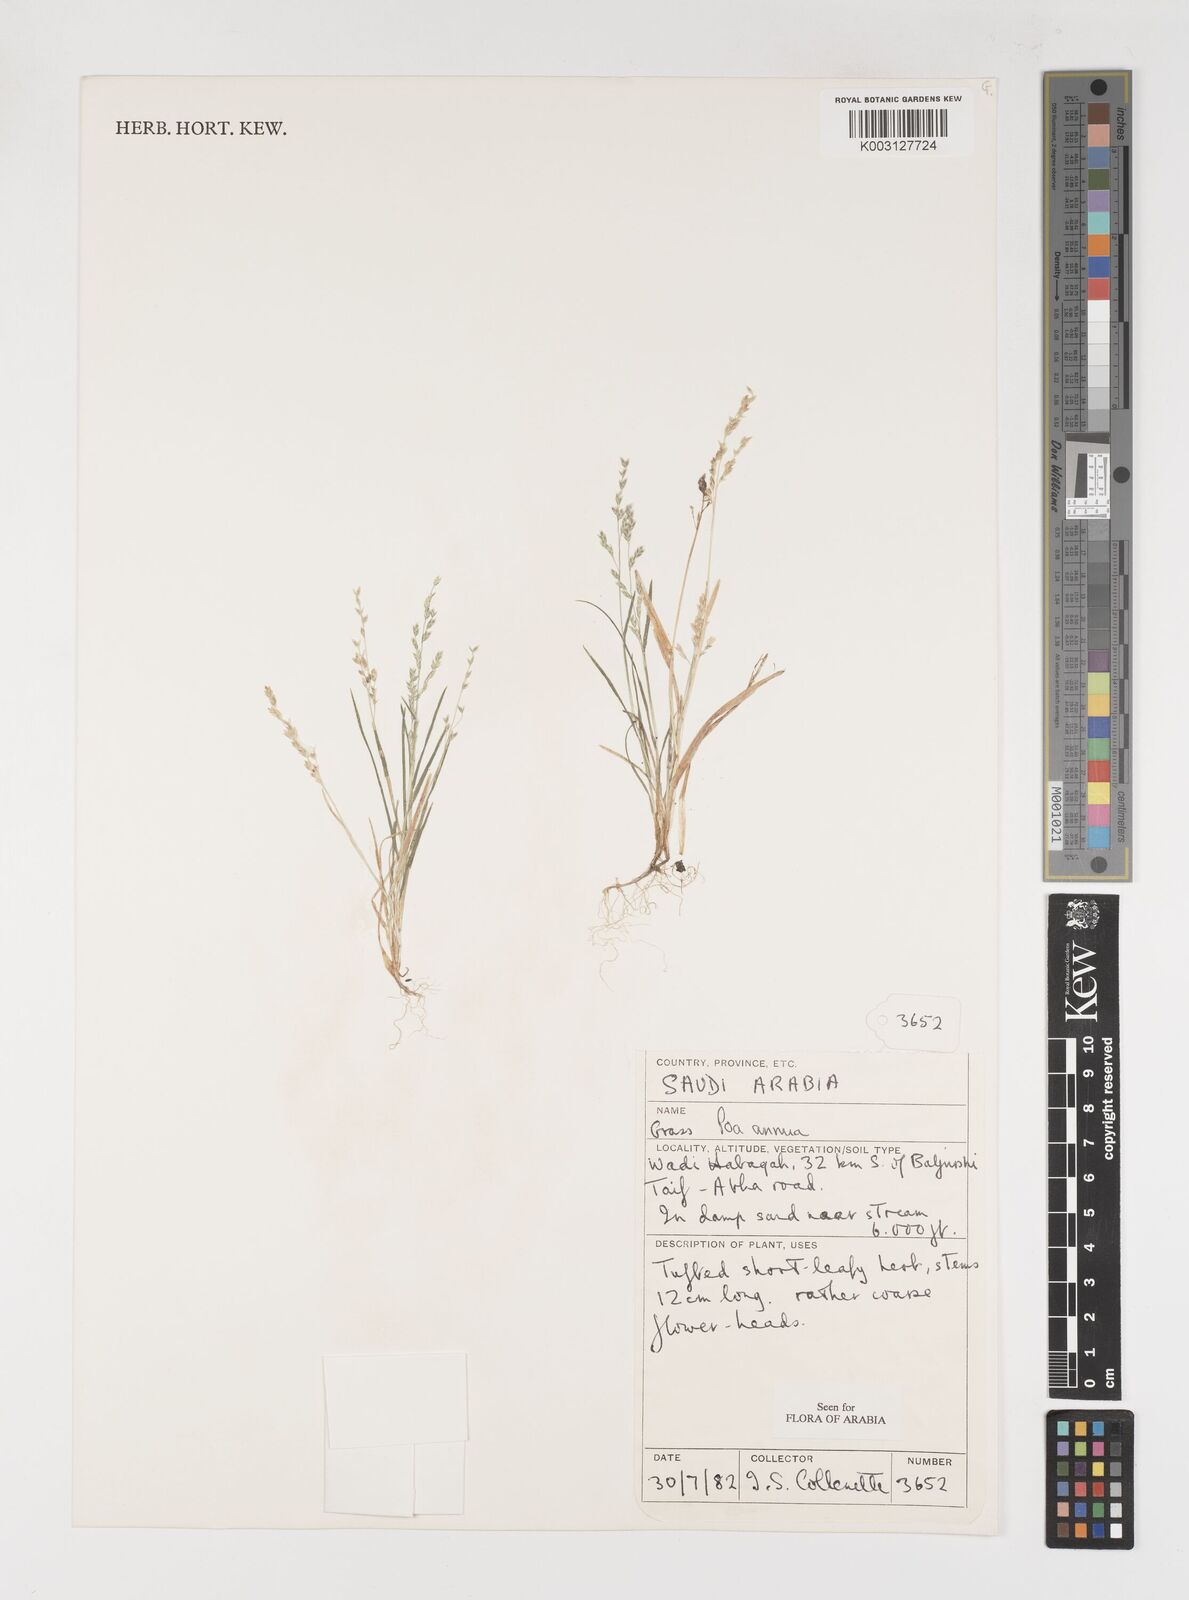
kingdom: Plantae
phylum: Tracheophyta
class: Liliopsida
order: Poales
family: Poaceae
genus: Poa
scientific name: Poa annua
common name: Annual bluegrass
